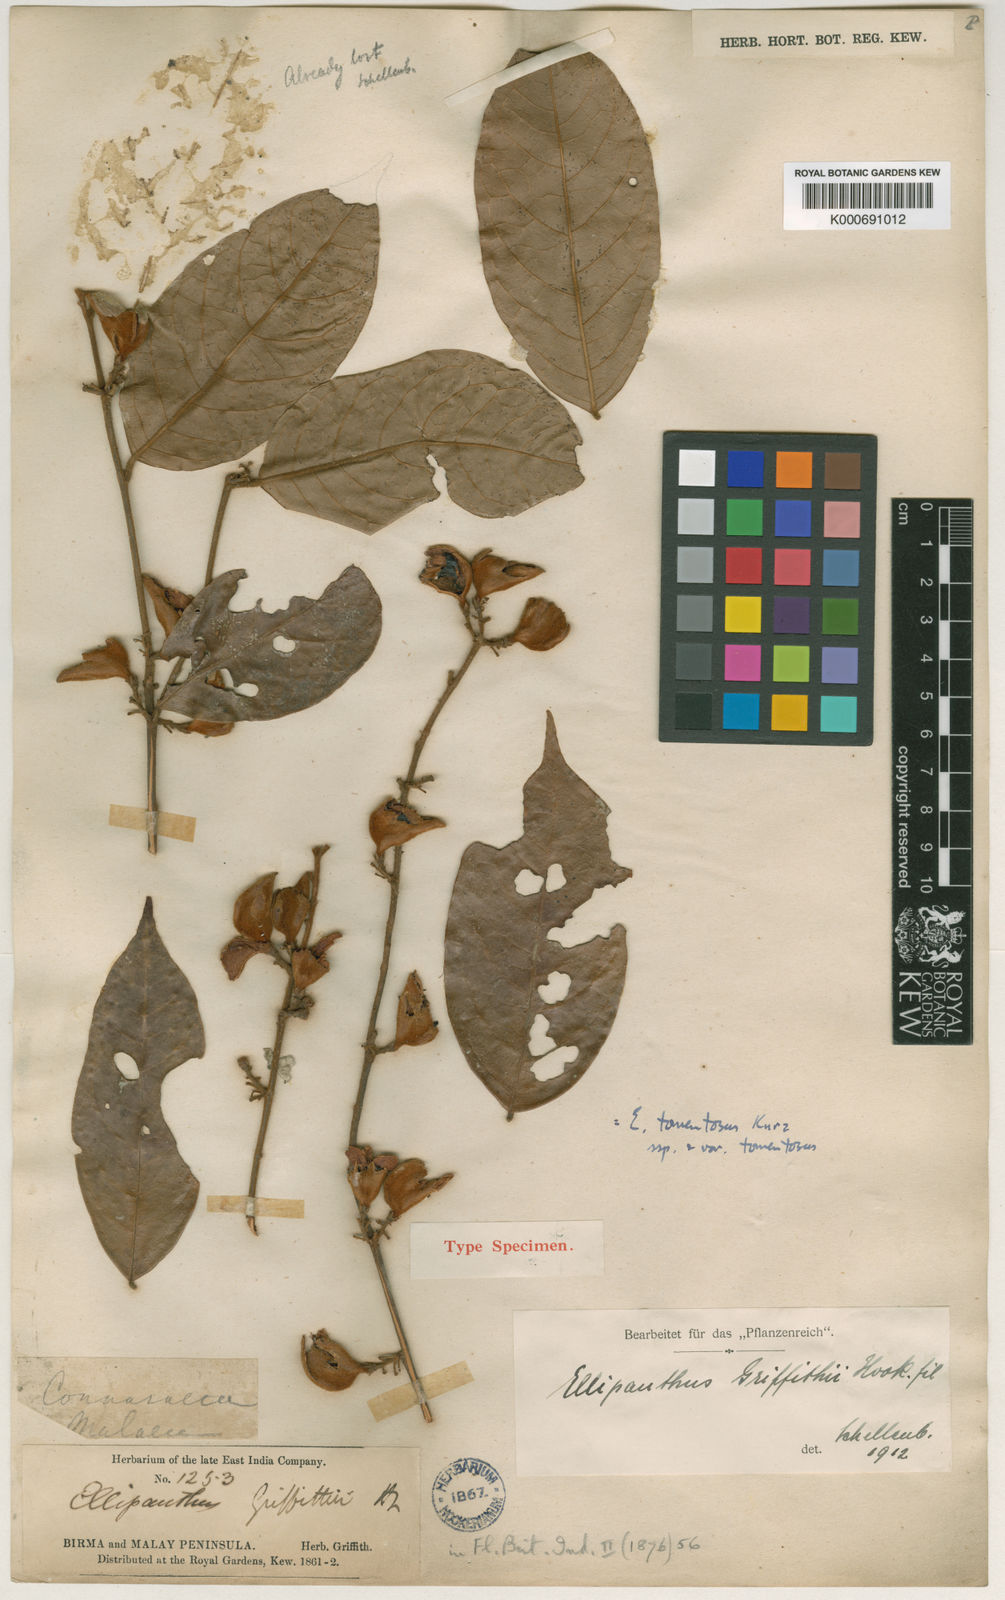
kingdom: Plantae
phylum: Tracheophyta
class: Magnoliopsida
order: Oxalidales
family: Connaraceae
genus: Ellipanthus
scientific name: Ellipanthus tomentosus
